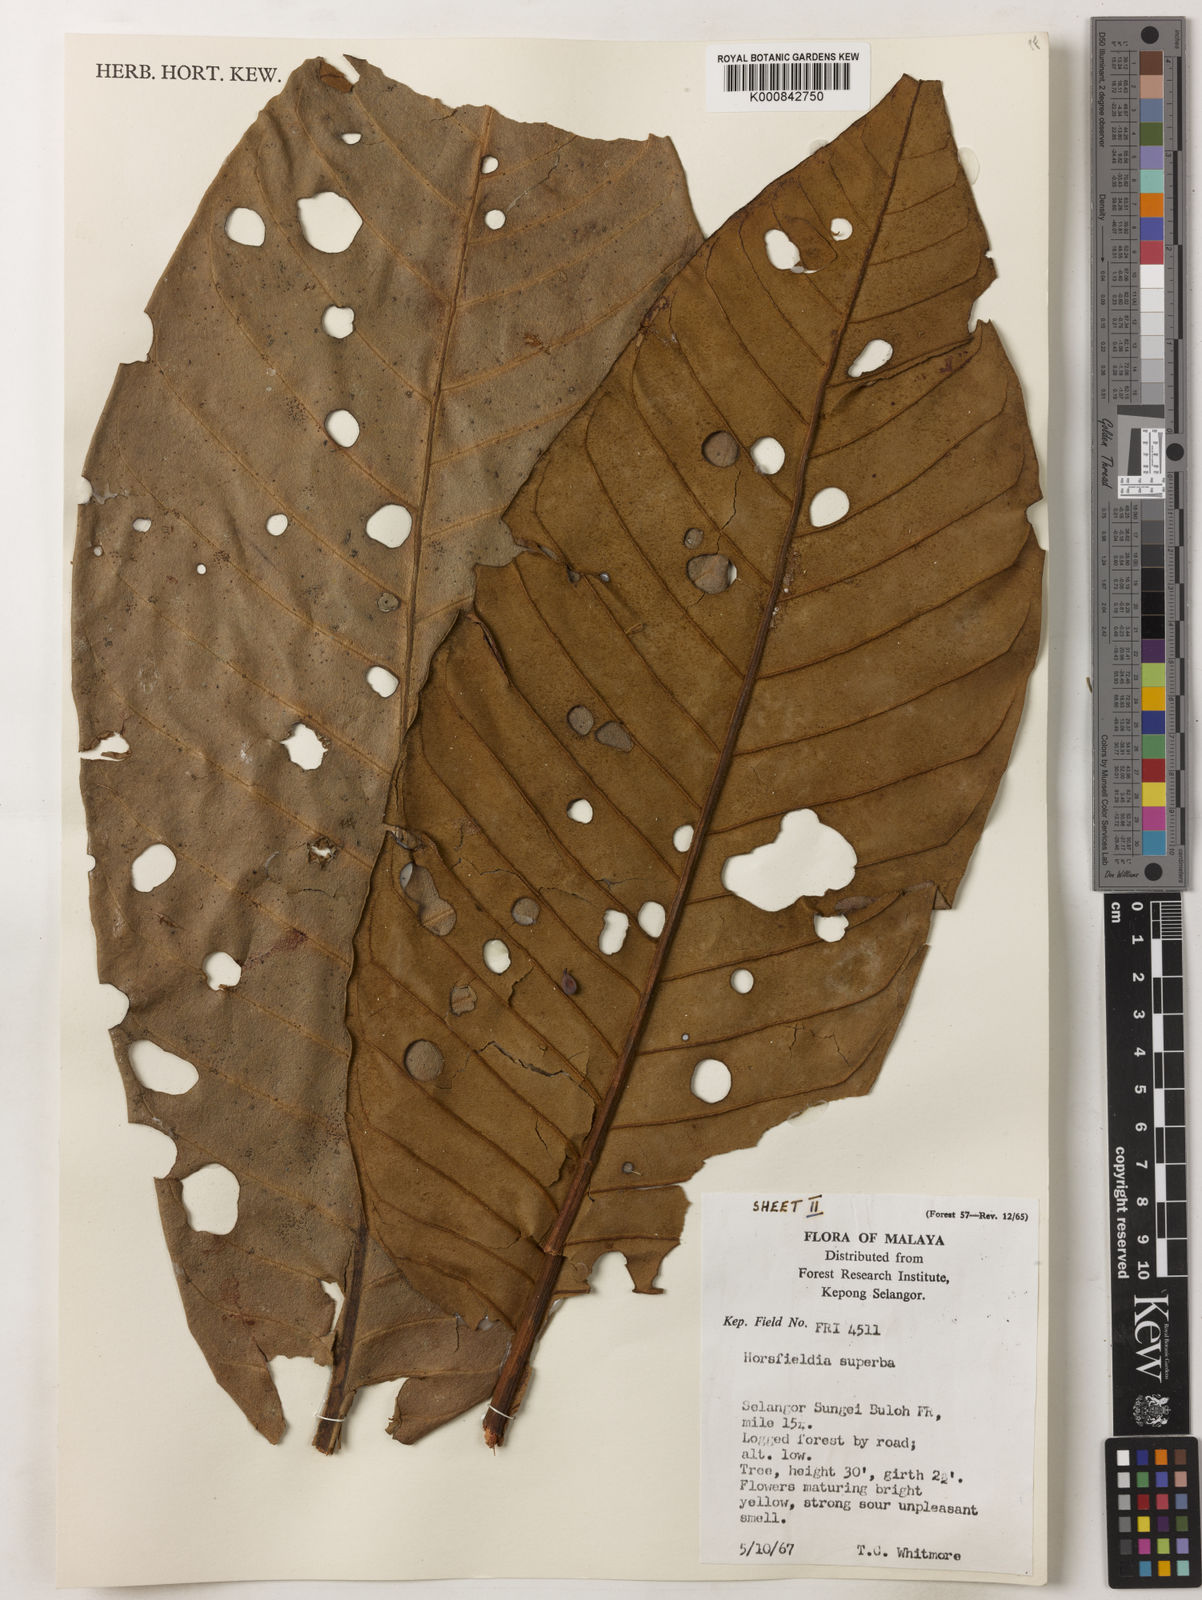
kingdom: Plantae
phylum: Tracheophyta
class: Magnoliopsida
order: Magnoliales
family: Myristicaceae
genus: Horsfieldia
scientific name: Horsfieldia superba
